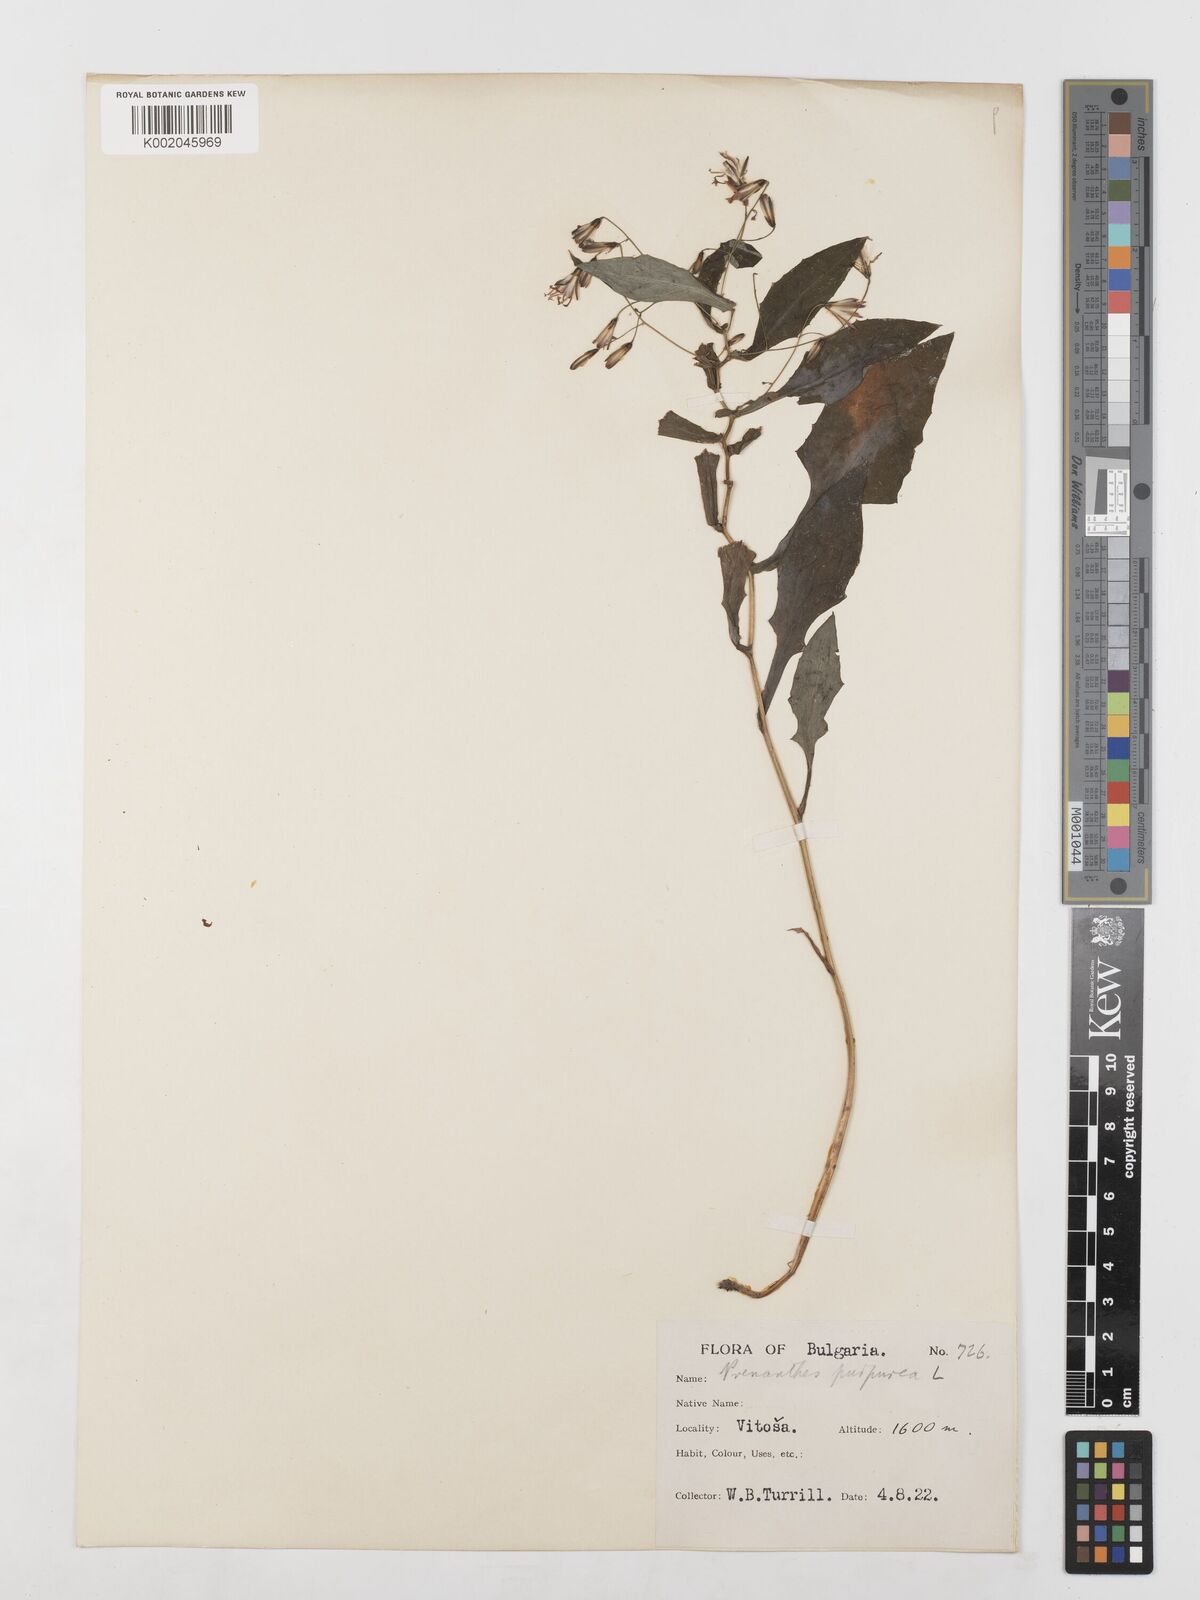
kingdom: Plantae
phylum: Tracheophyta
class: Magnoliopsida
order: Asterales
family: Asteraceae
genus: Prenanthes
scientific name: Prenanthes purpurea
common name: Purple lettuce
